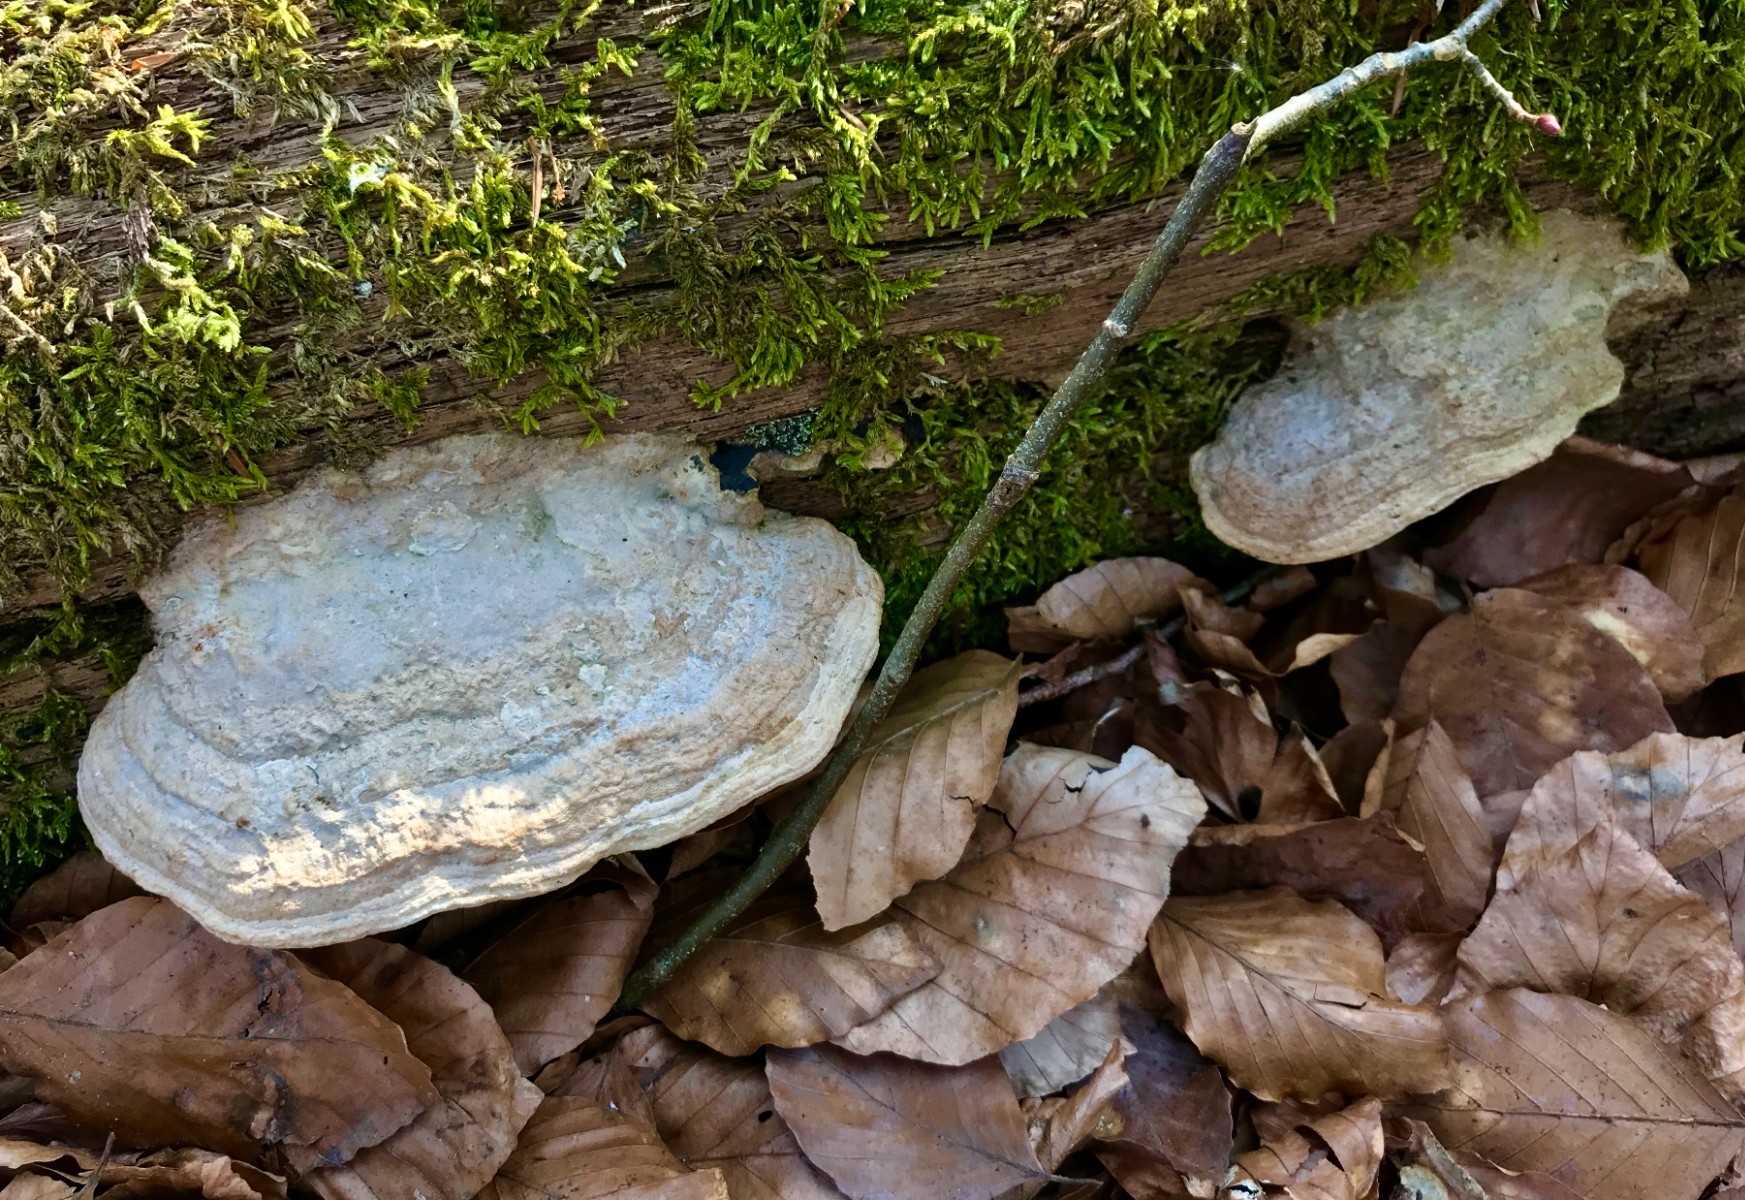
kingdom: Fungi
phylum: Basidiomycota
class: Agaricomycetes
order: Polyporales
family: Fomitopsidaceae
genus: Daedalea
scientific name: Daedalea quercina
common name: ege-labyrintsvamp
